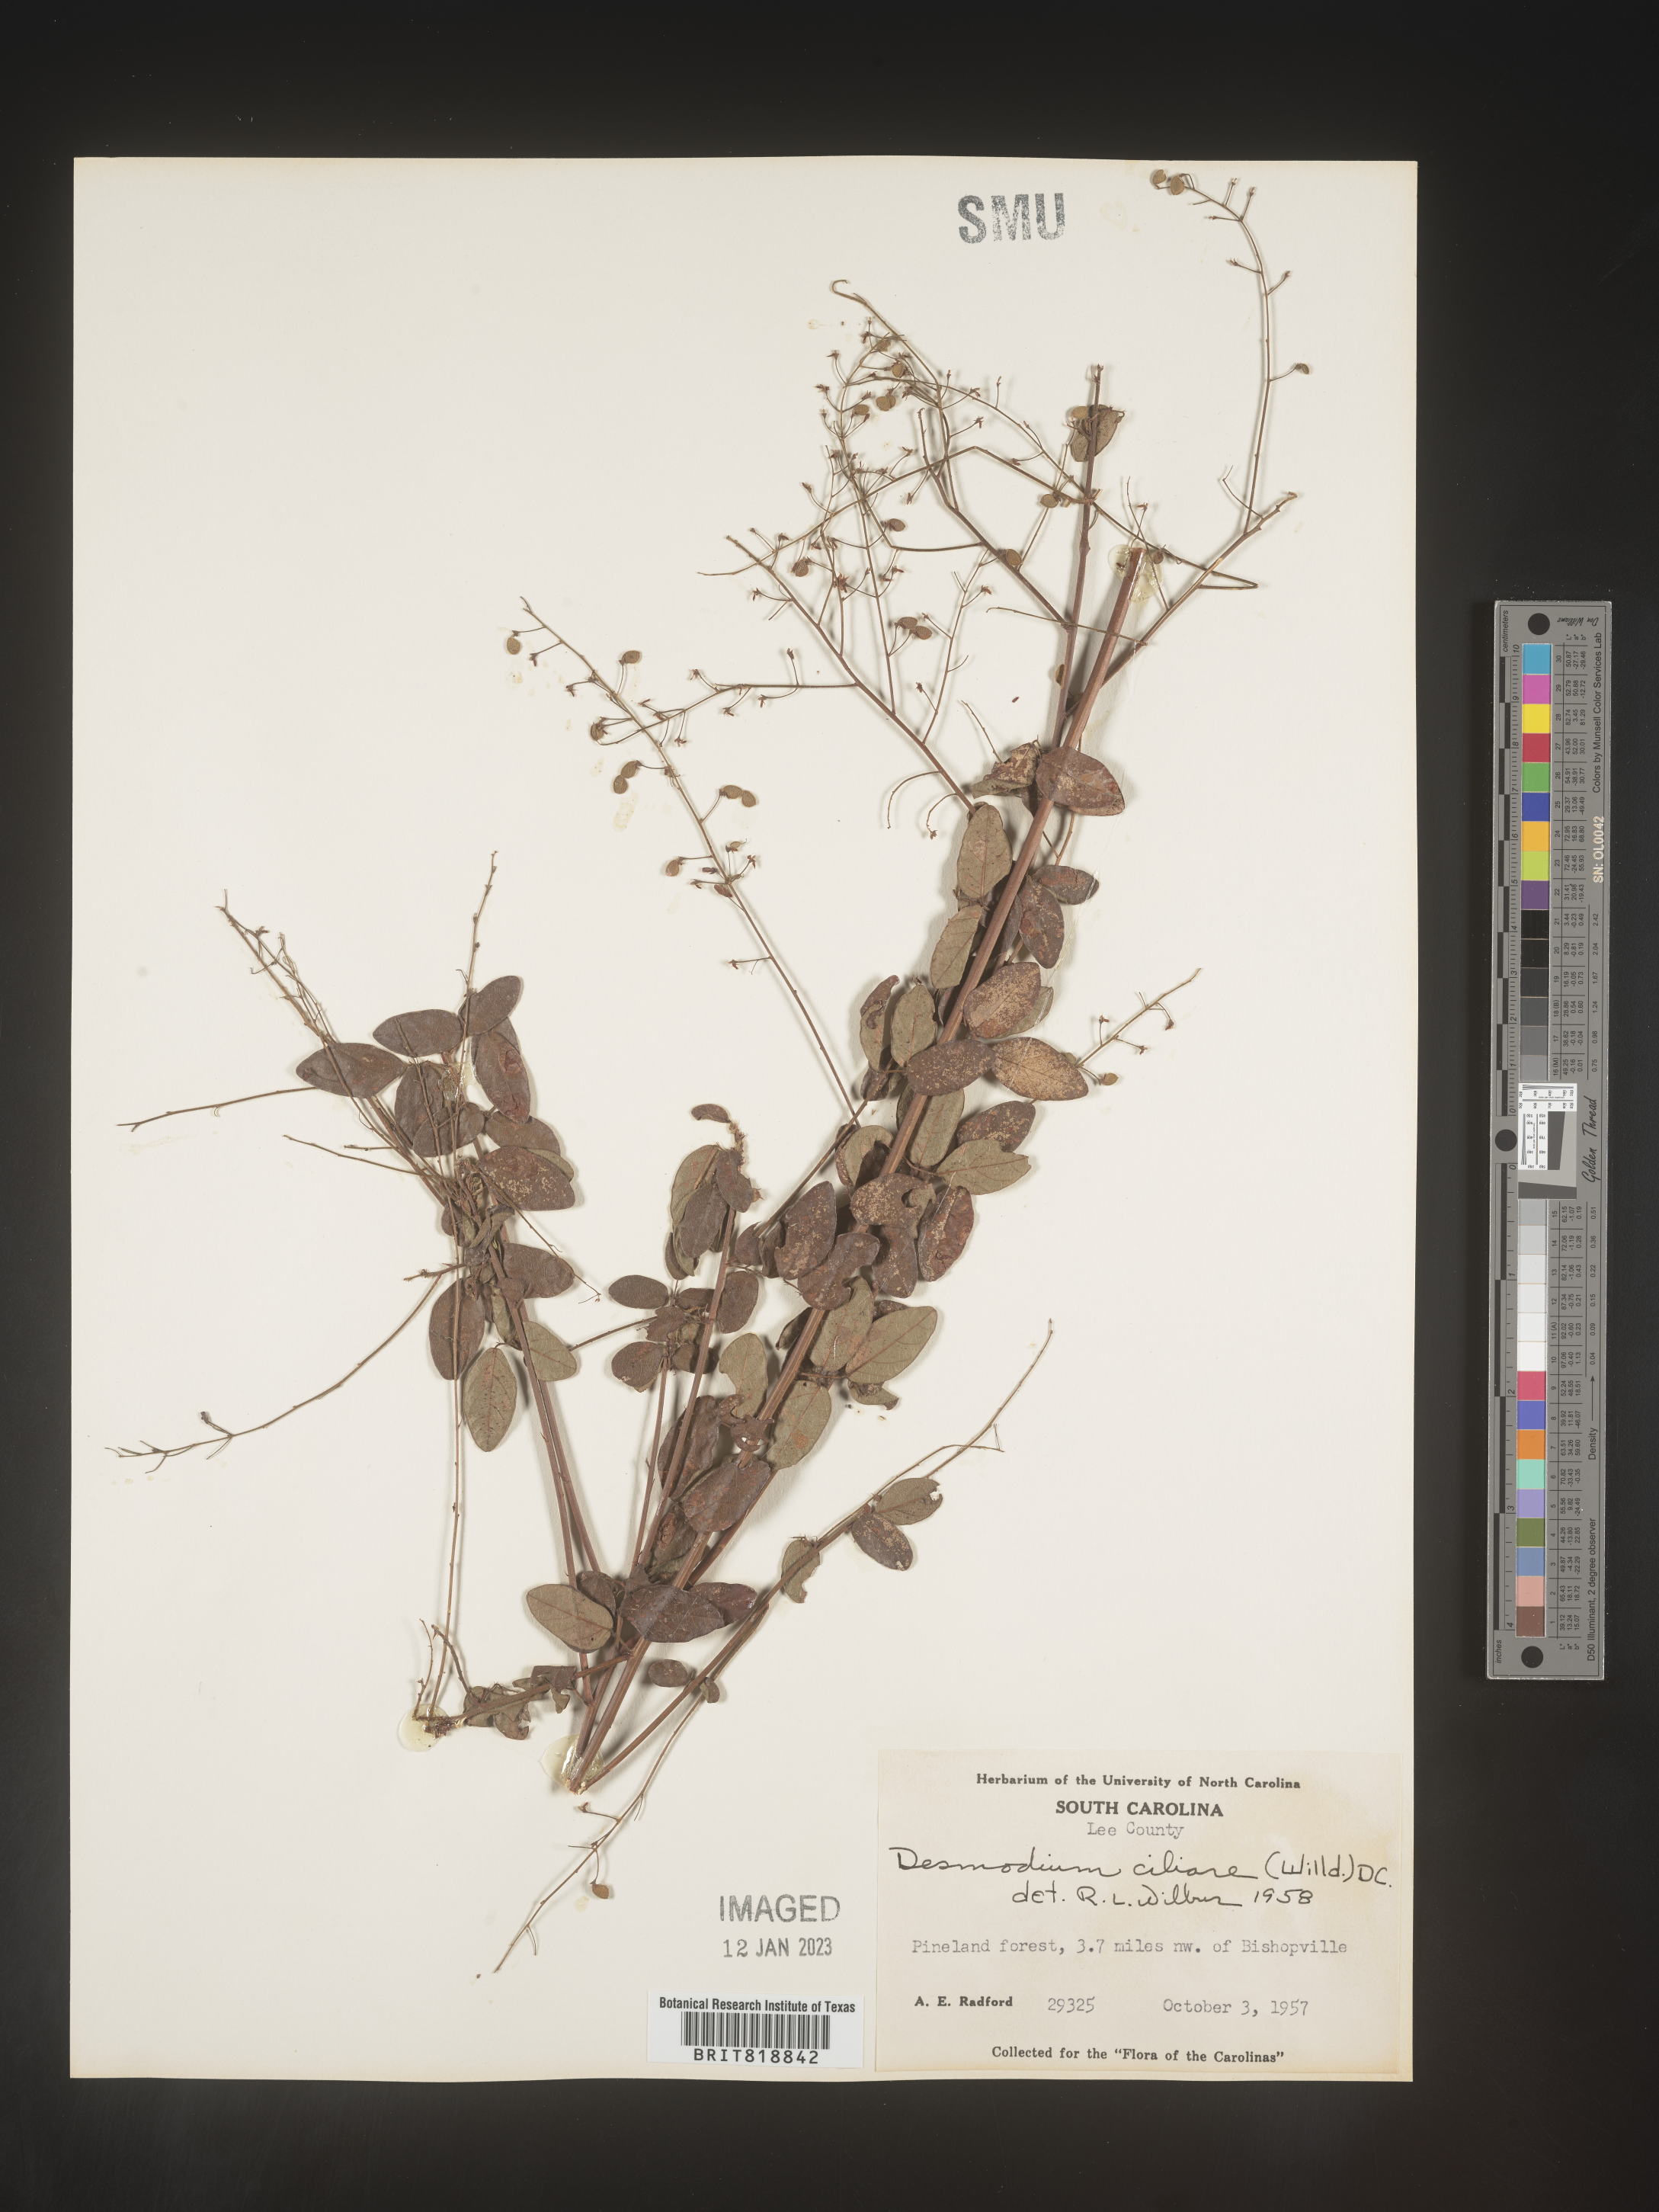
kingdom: Plantae
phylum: Tracheophyta
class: Magnoliopsida
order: Fabales
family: Fabaceae
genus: Desmodium
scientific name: Desmodium ciliare
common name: Hairy small-leaf ticktrefoil
